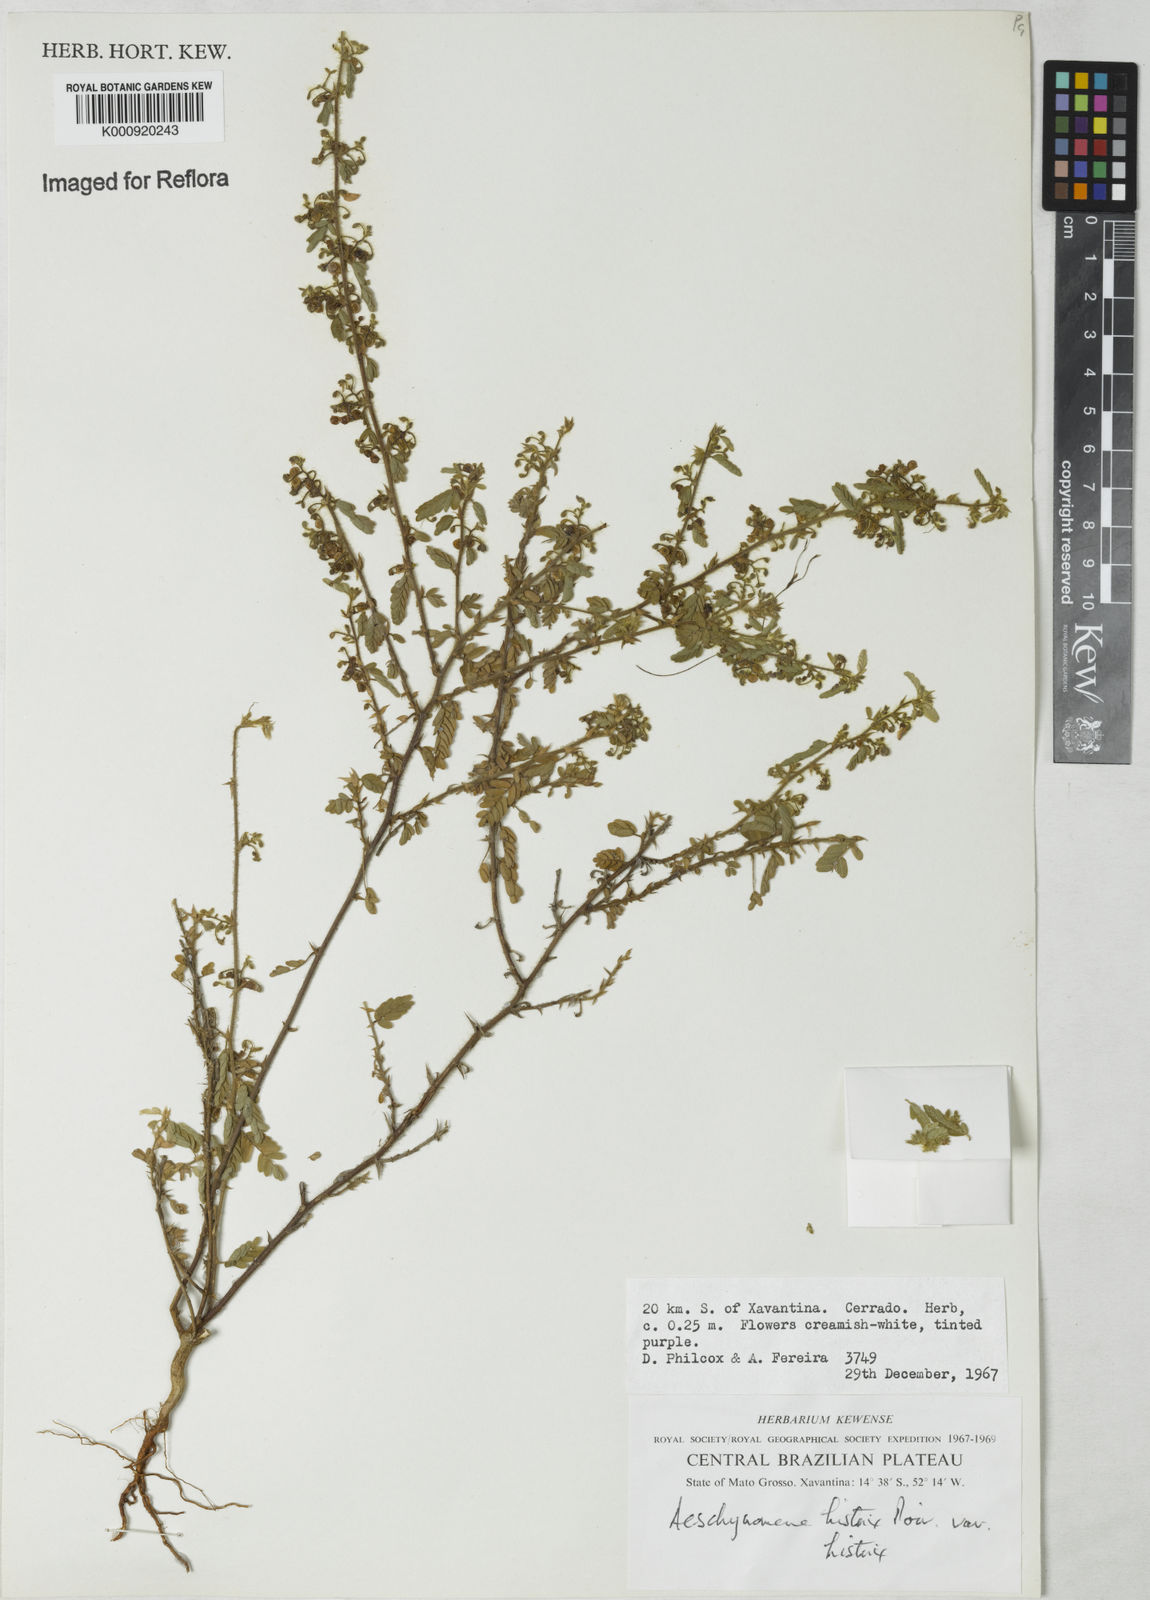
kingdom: Plantae
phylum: Tracheophyta
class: Magnoliopsida
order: Fabales
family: Fabaceae
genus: Ctenodon
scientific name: Ctenodon histrix
